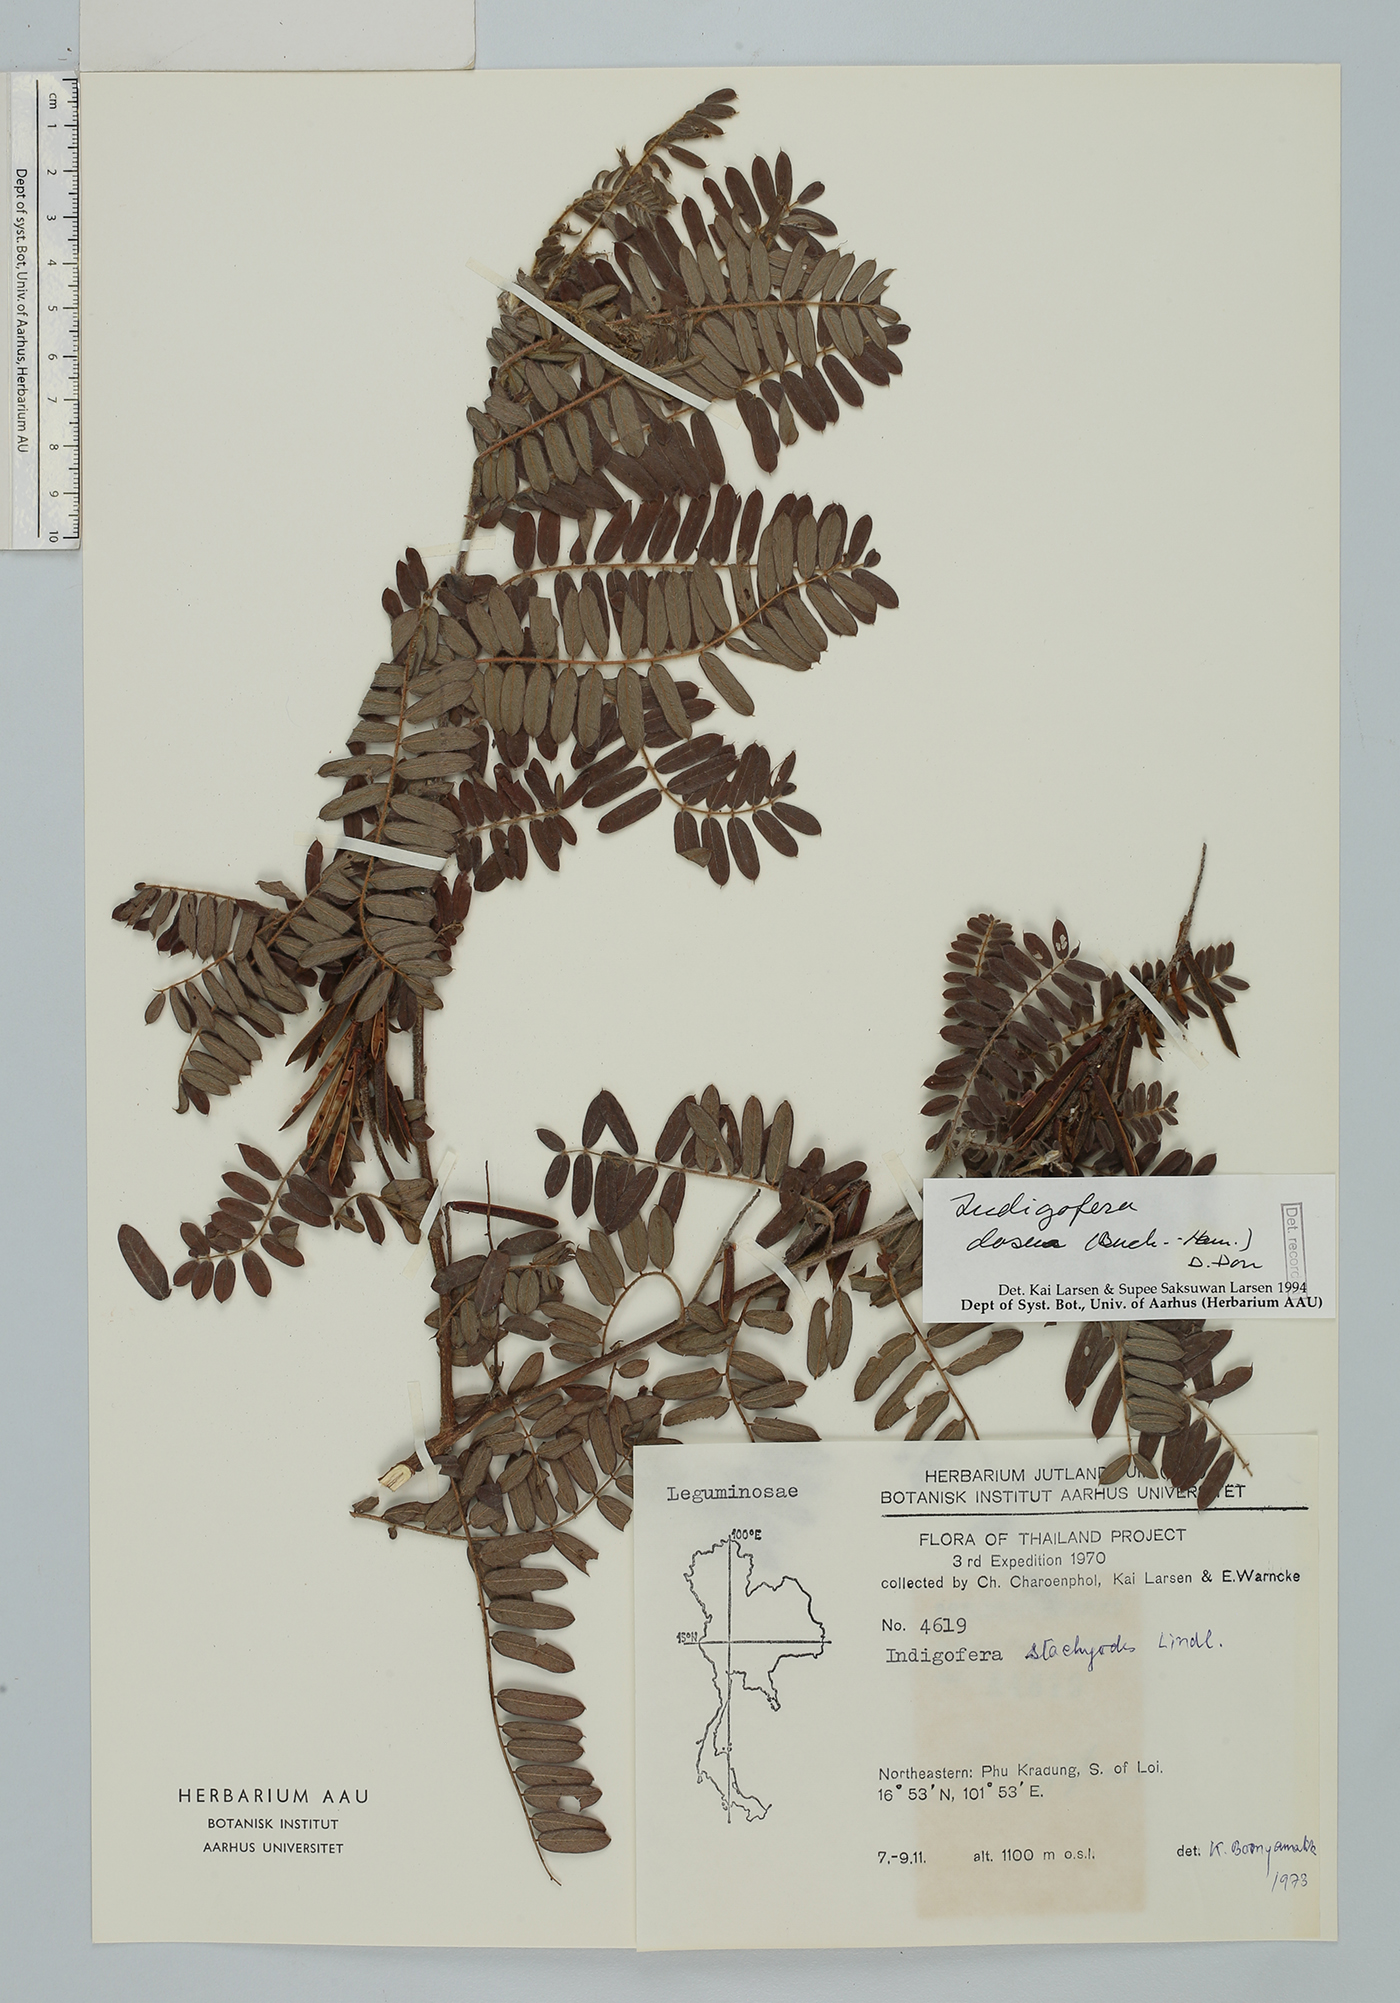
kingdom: Plantae
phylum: Tracheophyta
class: Magnoliopsida
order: Fabales
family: Fabaceae
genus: Indigofera
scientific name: Indigofera dosua
